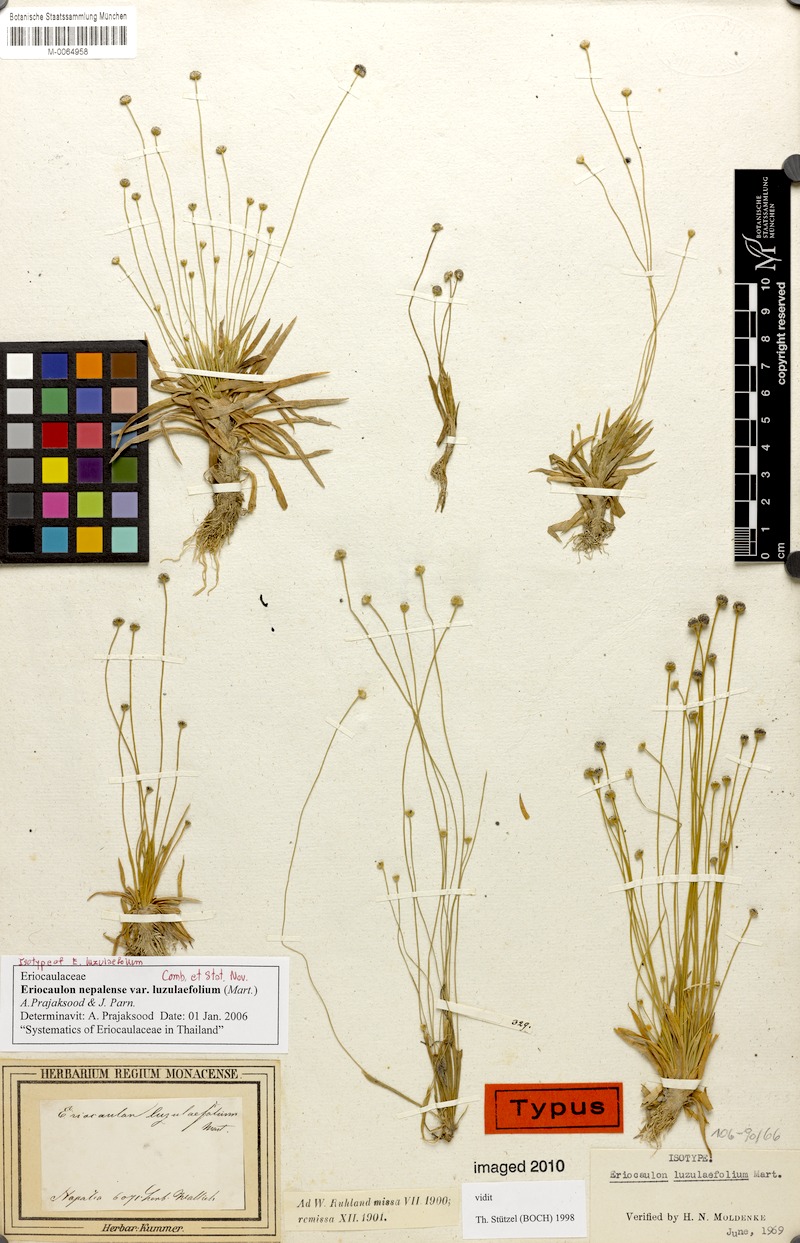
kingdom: Plantae
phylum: Tracheophyta
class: Liliopsida
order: Poales
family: Eriocaulaceae
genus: Eriocaulon
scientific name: Eriocaulon nepalense
